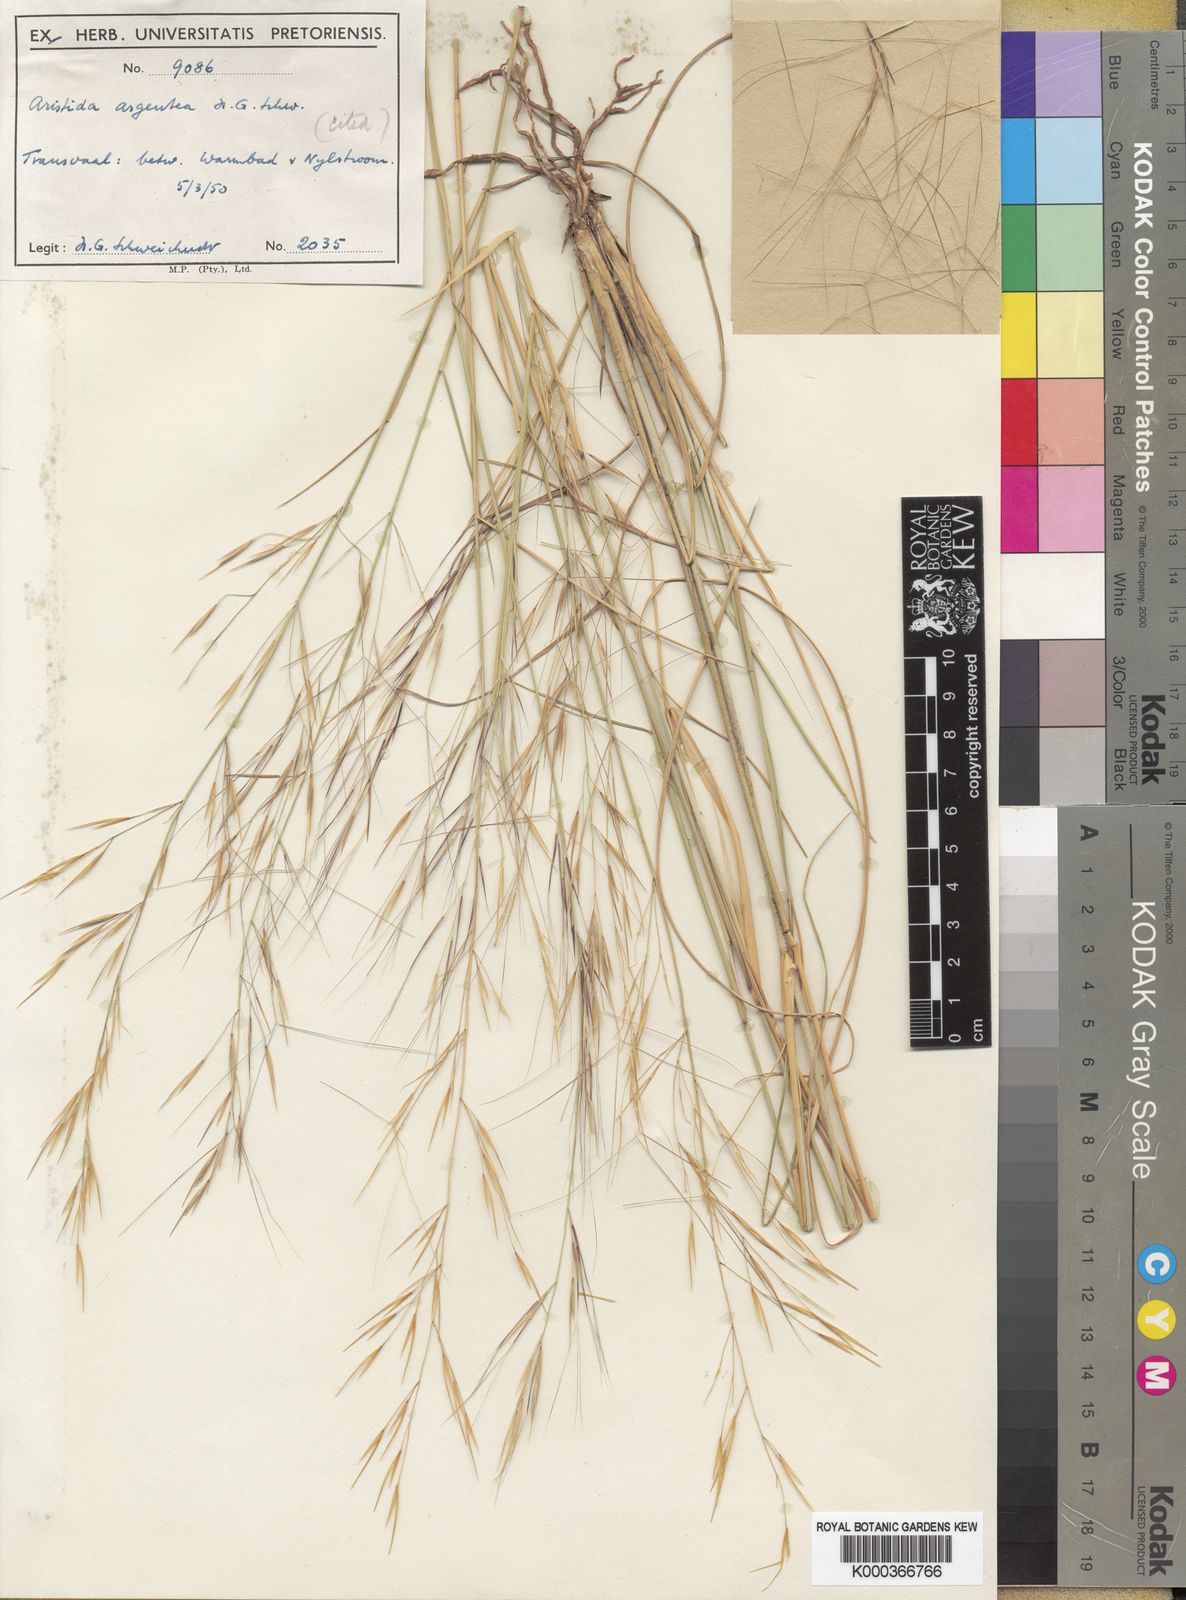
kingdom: Plantae
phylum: Tracheophyta
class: Liliopsida
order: Poales
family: Poaceae
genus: Aristida
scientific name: Aristida mollissima
